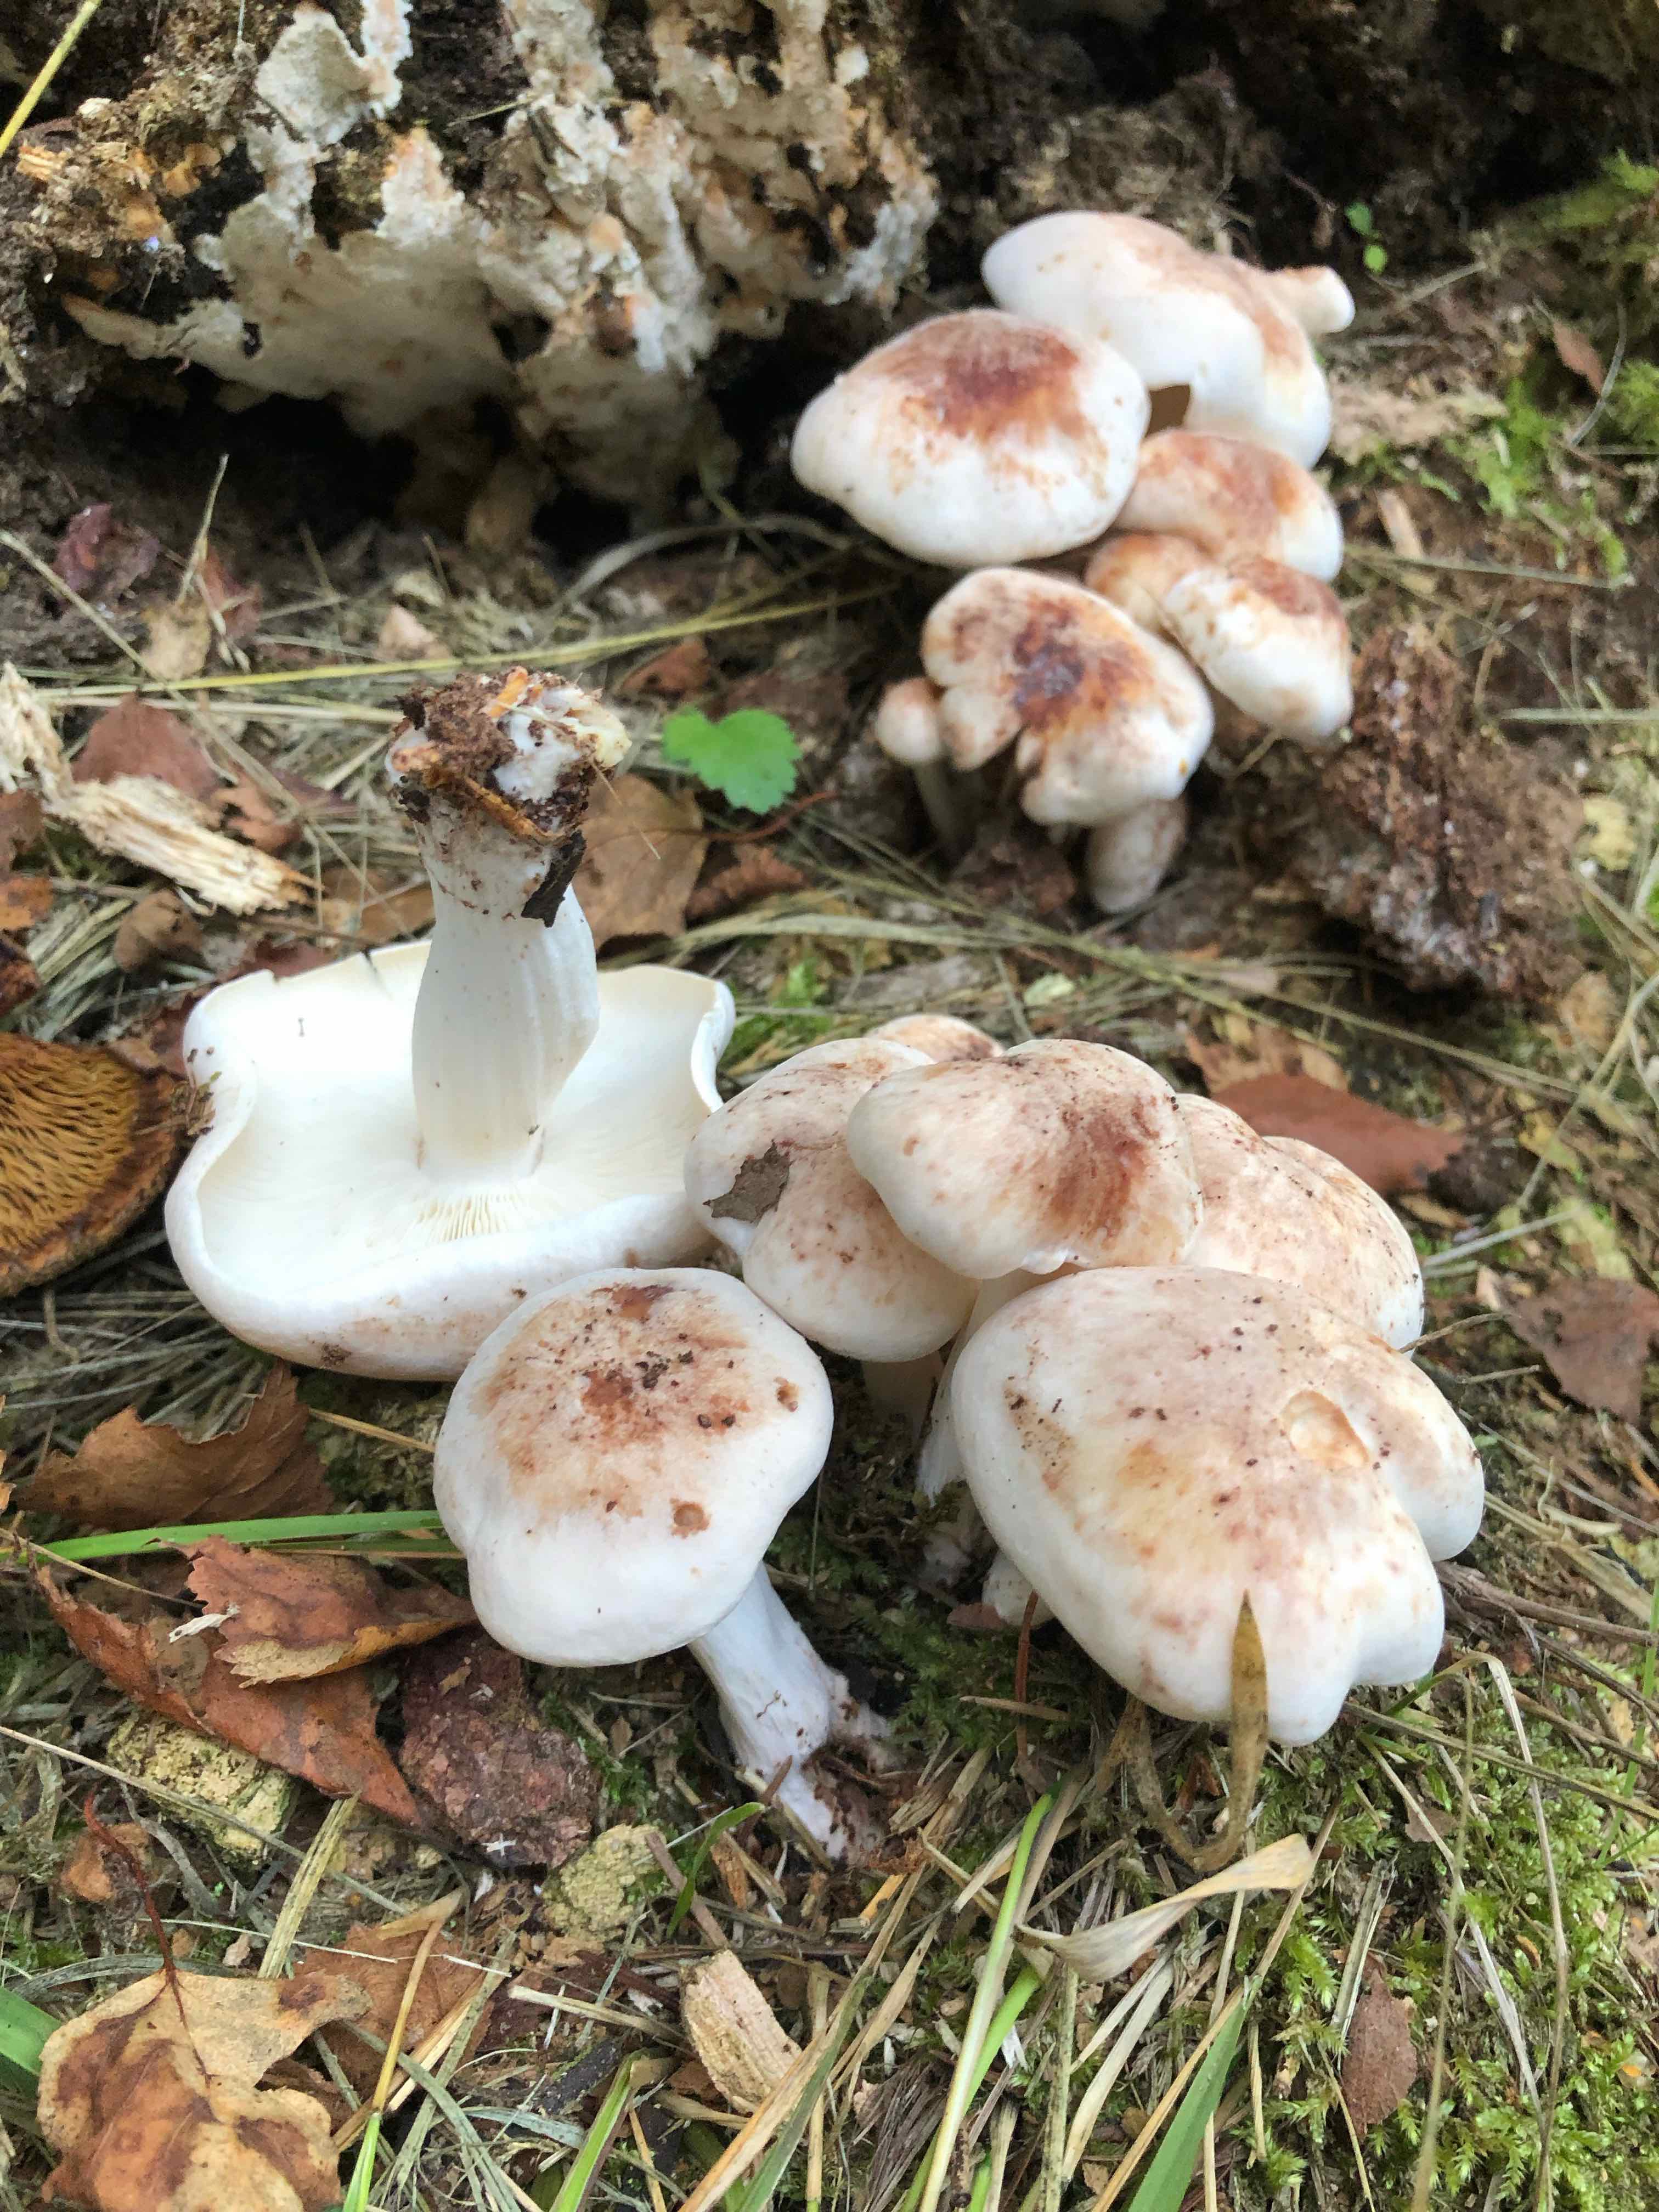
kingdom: Fungi
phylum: Basidiomycota
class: Agaricomycetes
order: Agaricales
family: Omphalotaceae
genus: Rhodocollybia
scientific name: Rhodocollybia maculata
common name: plettet fladhat
